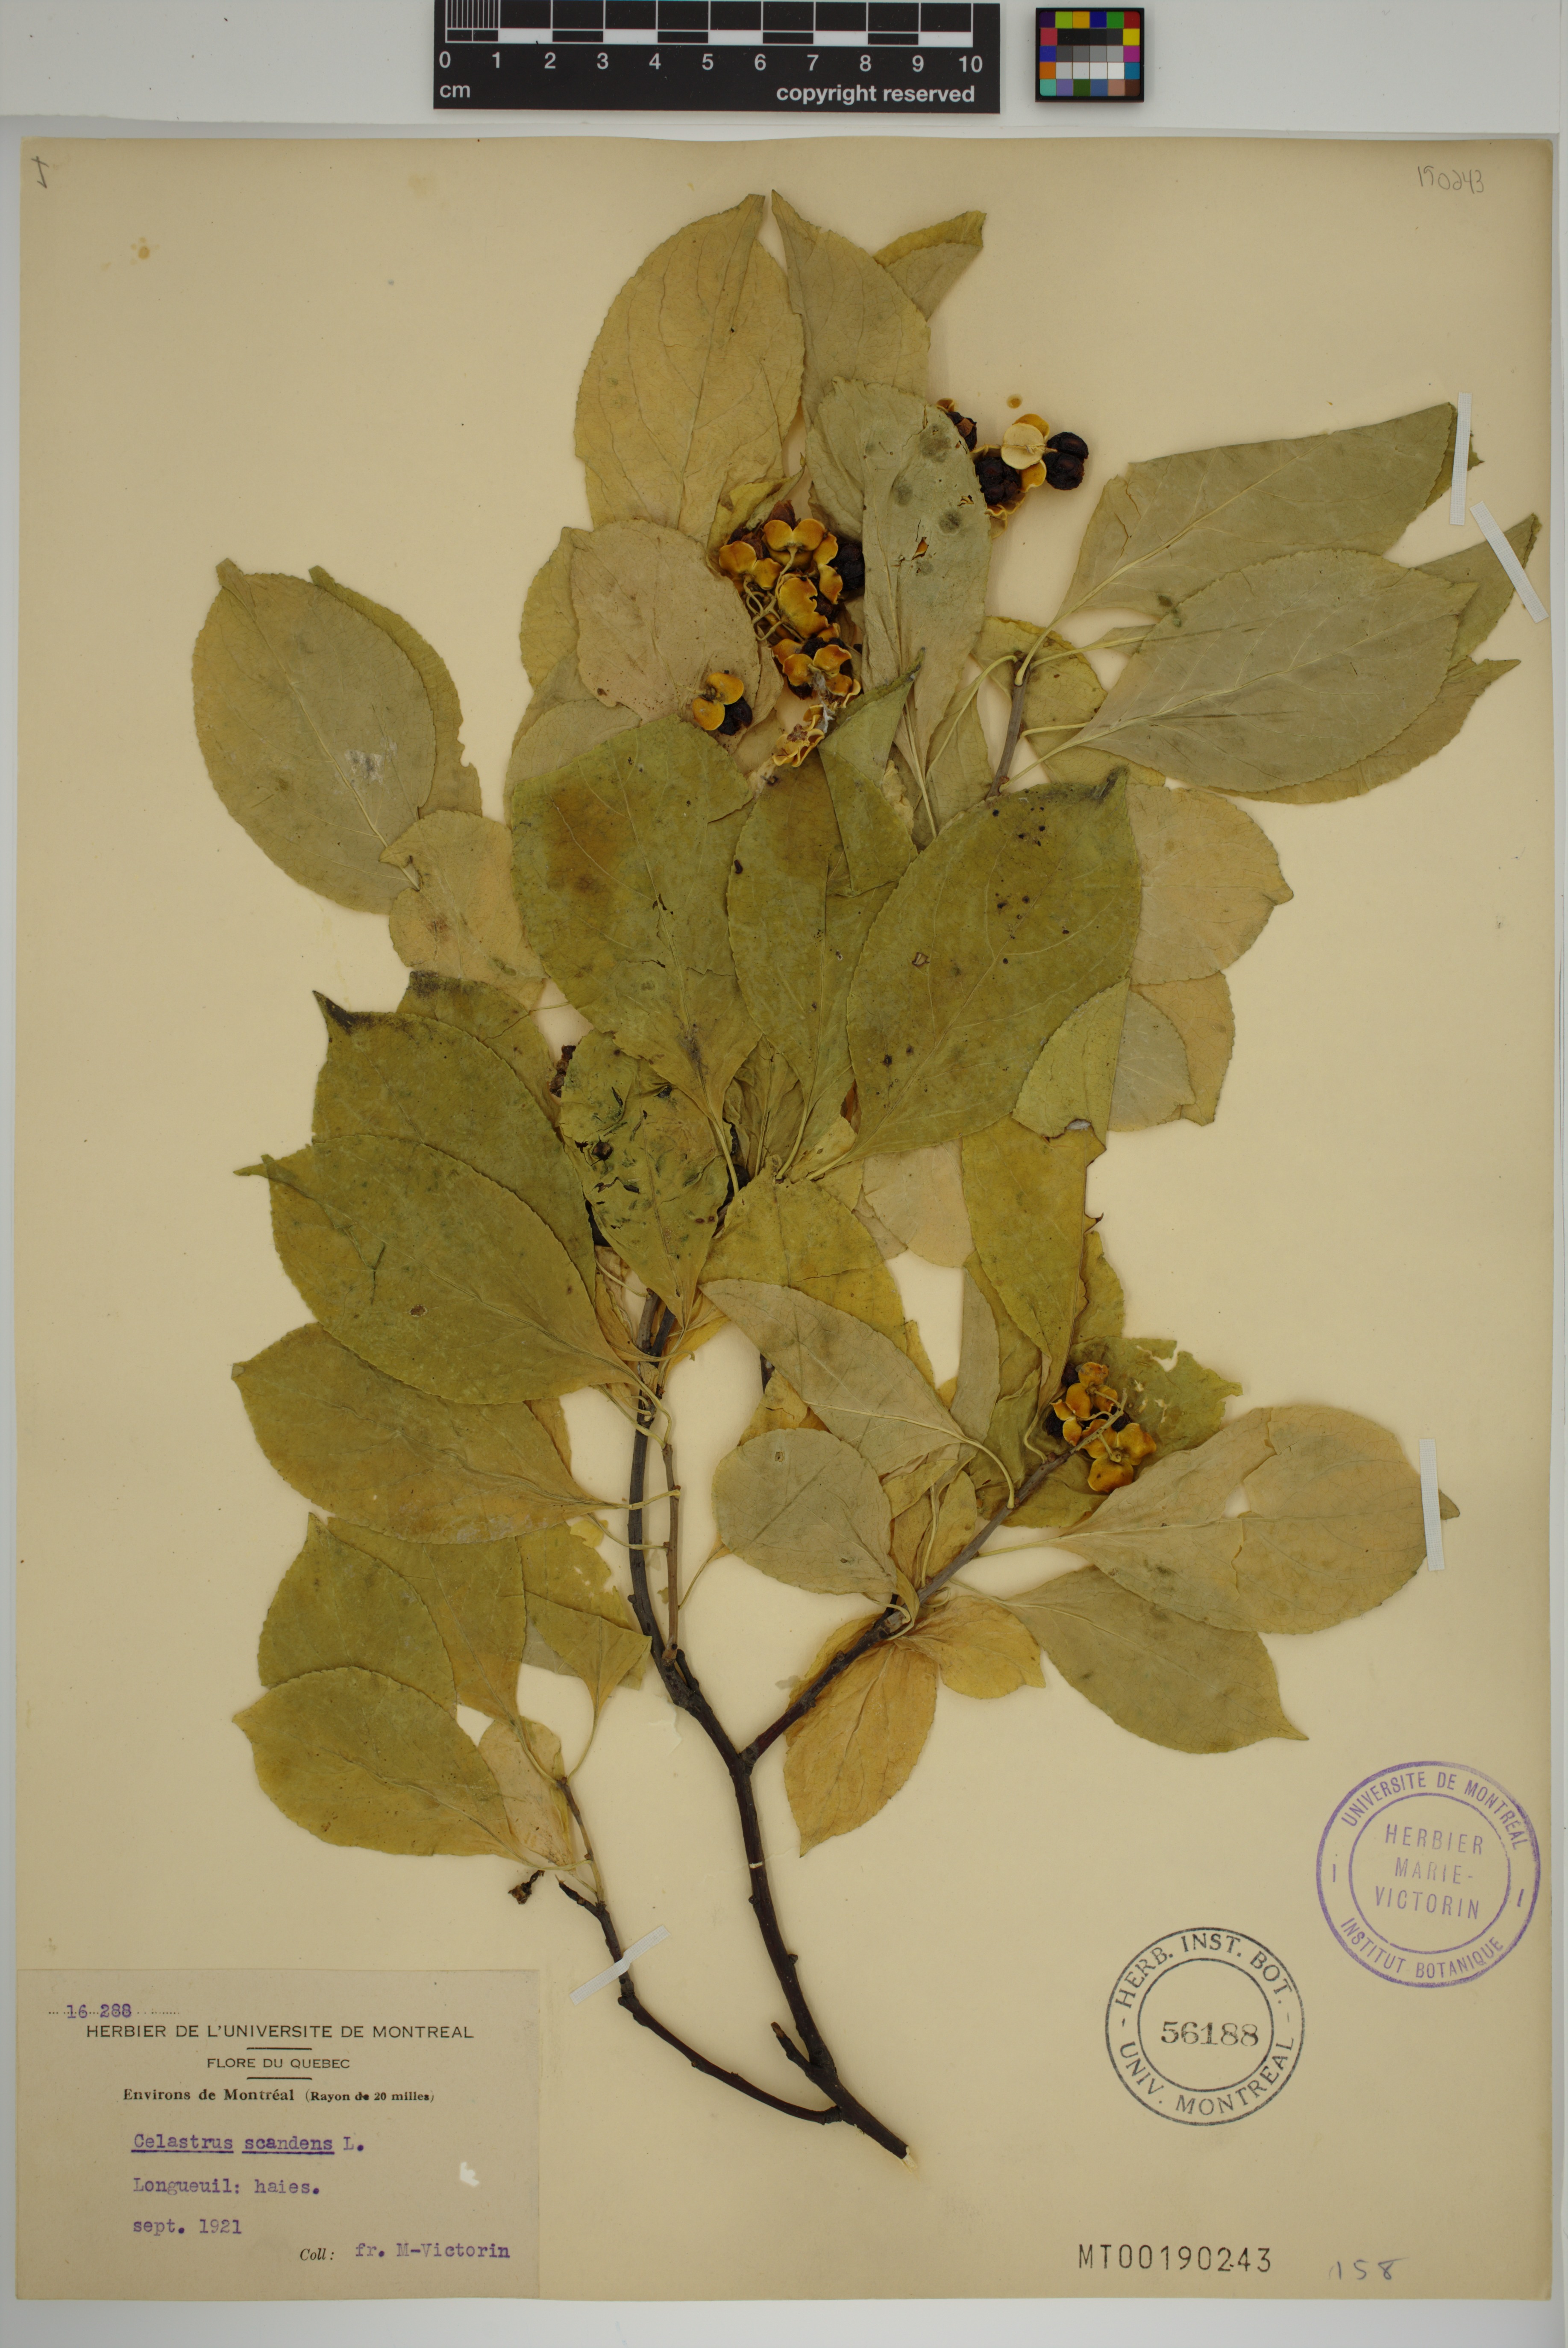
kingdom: Plantae
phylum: Tracheophyta
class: Magnoliopsida
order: Celastrales
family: Celastraceae
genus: Celastrus
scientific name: Celastrus scandens
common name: American bittersweet
